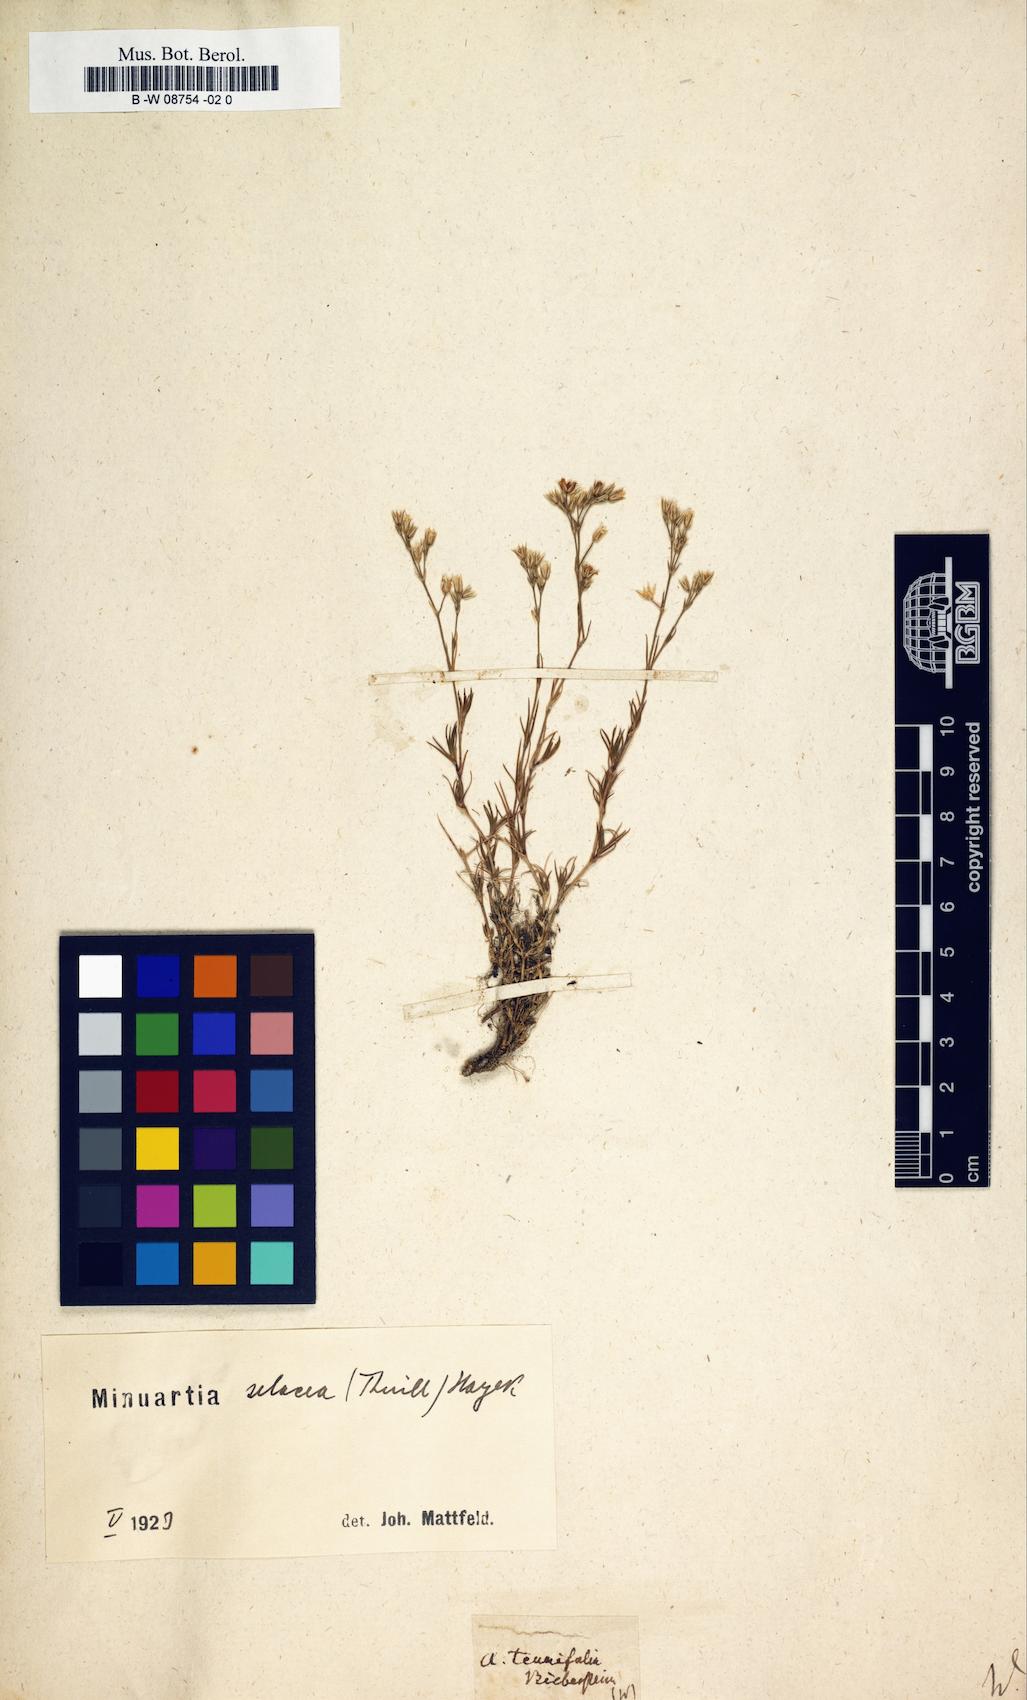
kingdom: Plantae
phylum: Tracheophyta
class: Magnoliopsida
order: Caryophyllales
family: Caryophyllaceae
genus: Arenaria
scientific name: Arenaria
